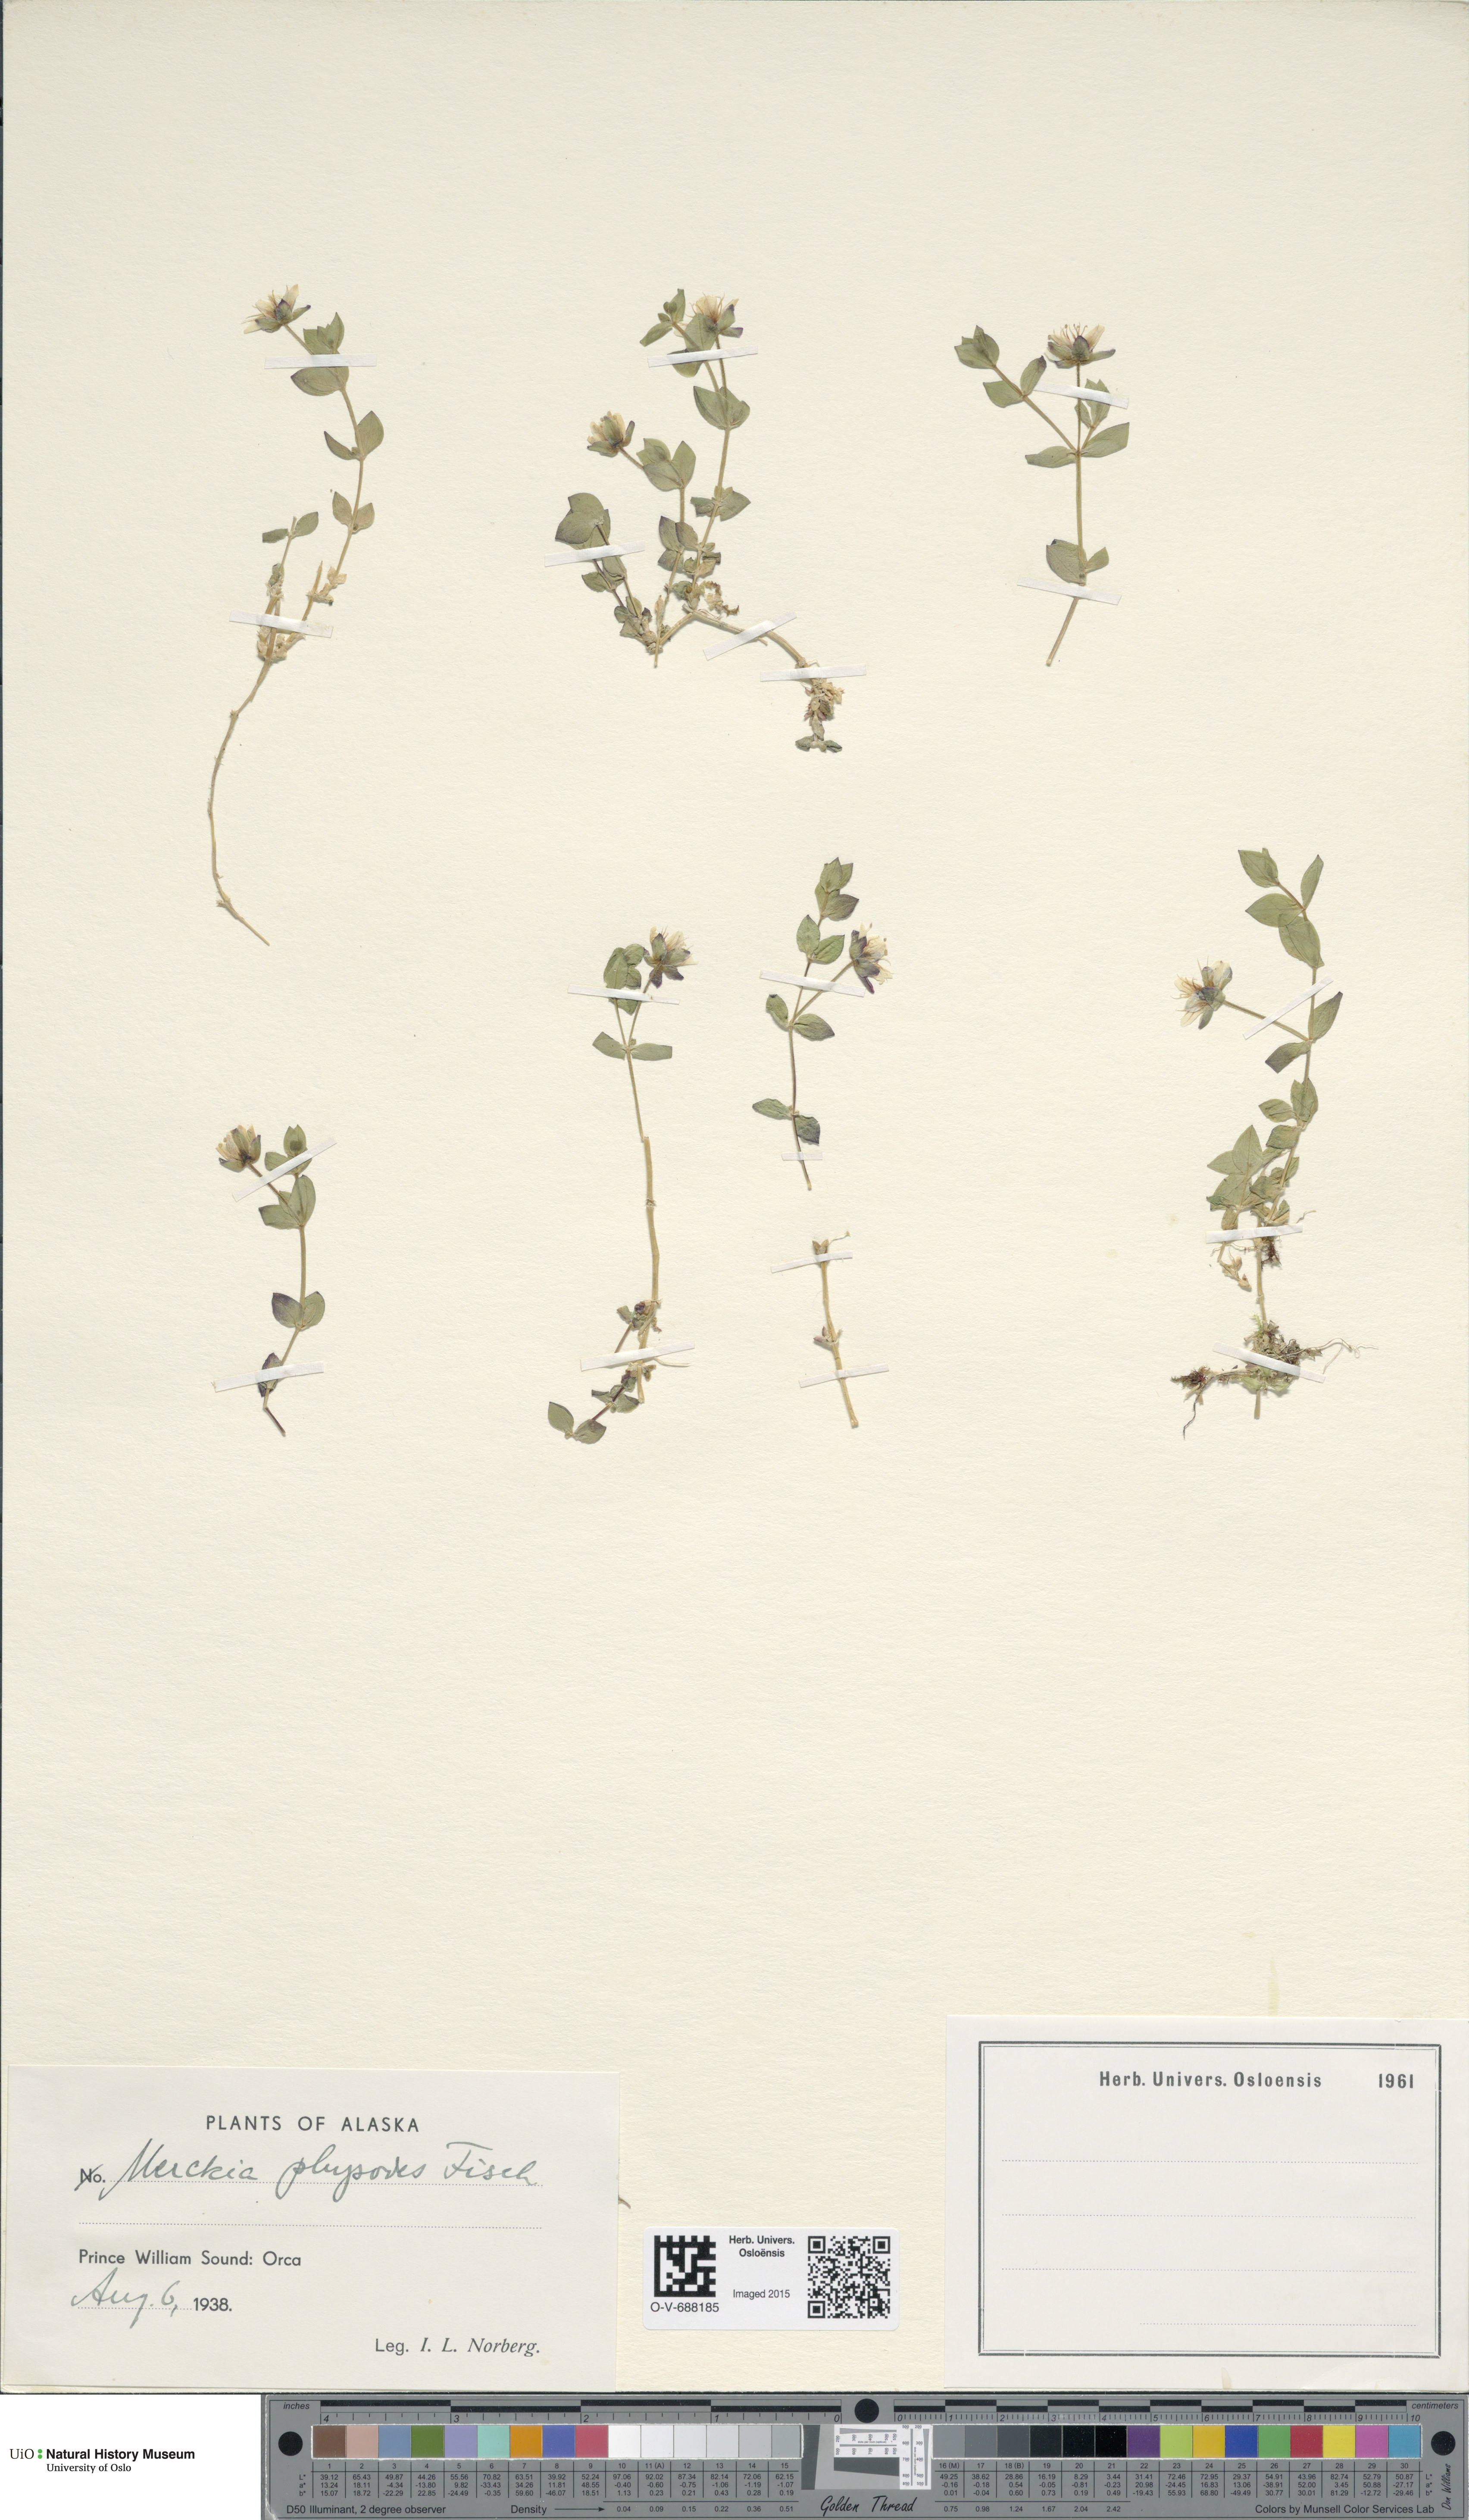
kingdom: Plantae
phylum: Tracheophyta
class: Magnoliopsida
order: Caryophyllales
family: Caryophyllaceae
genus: Wilhelmsia
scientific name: Wilhelmsia physodes
